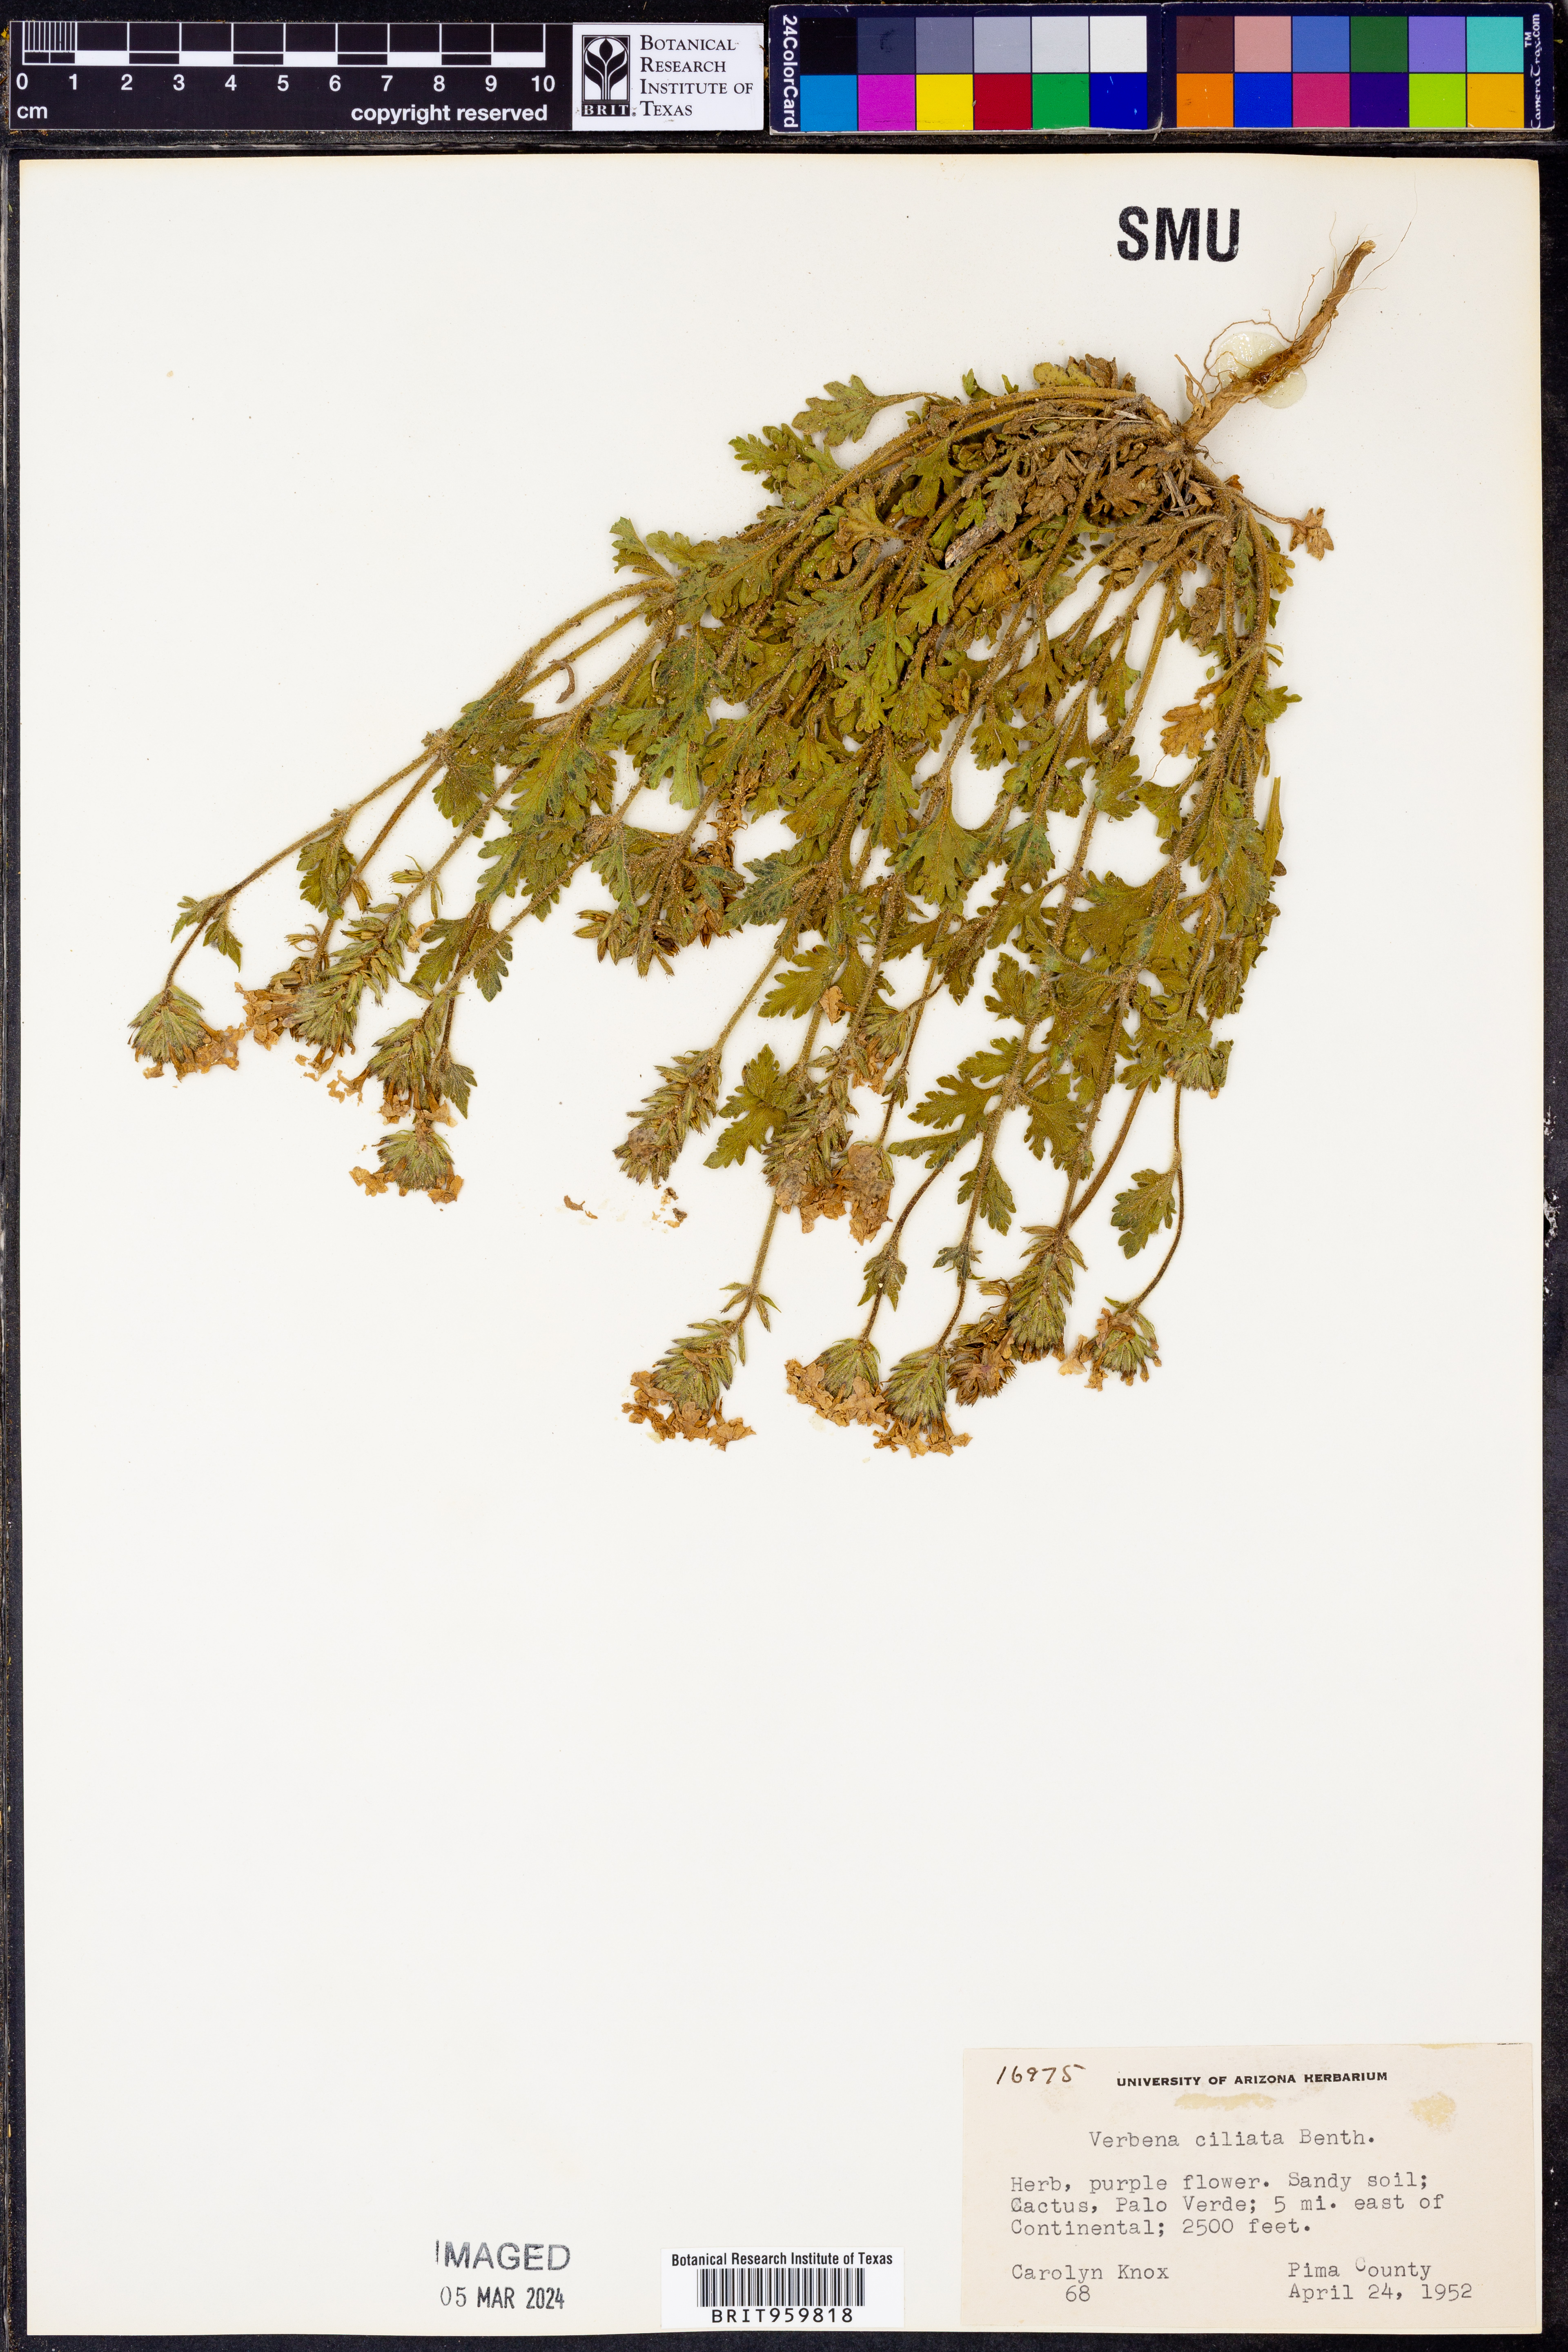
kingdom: Plantae
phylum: Tracheophyta
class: Magnoliopsida
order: Lamiales
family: Verbenaceae
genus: Verbena
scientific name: Verbena gooddingii
